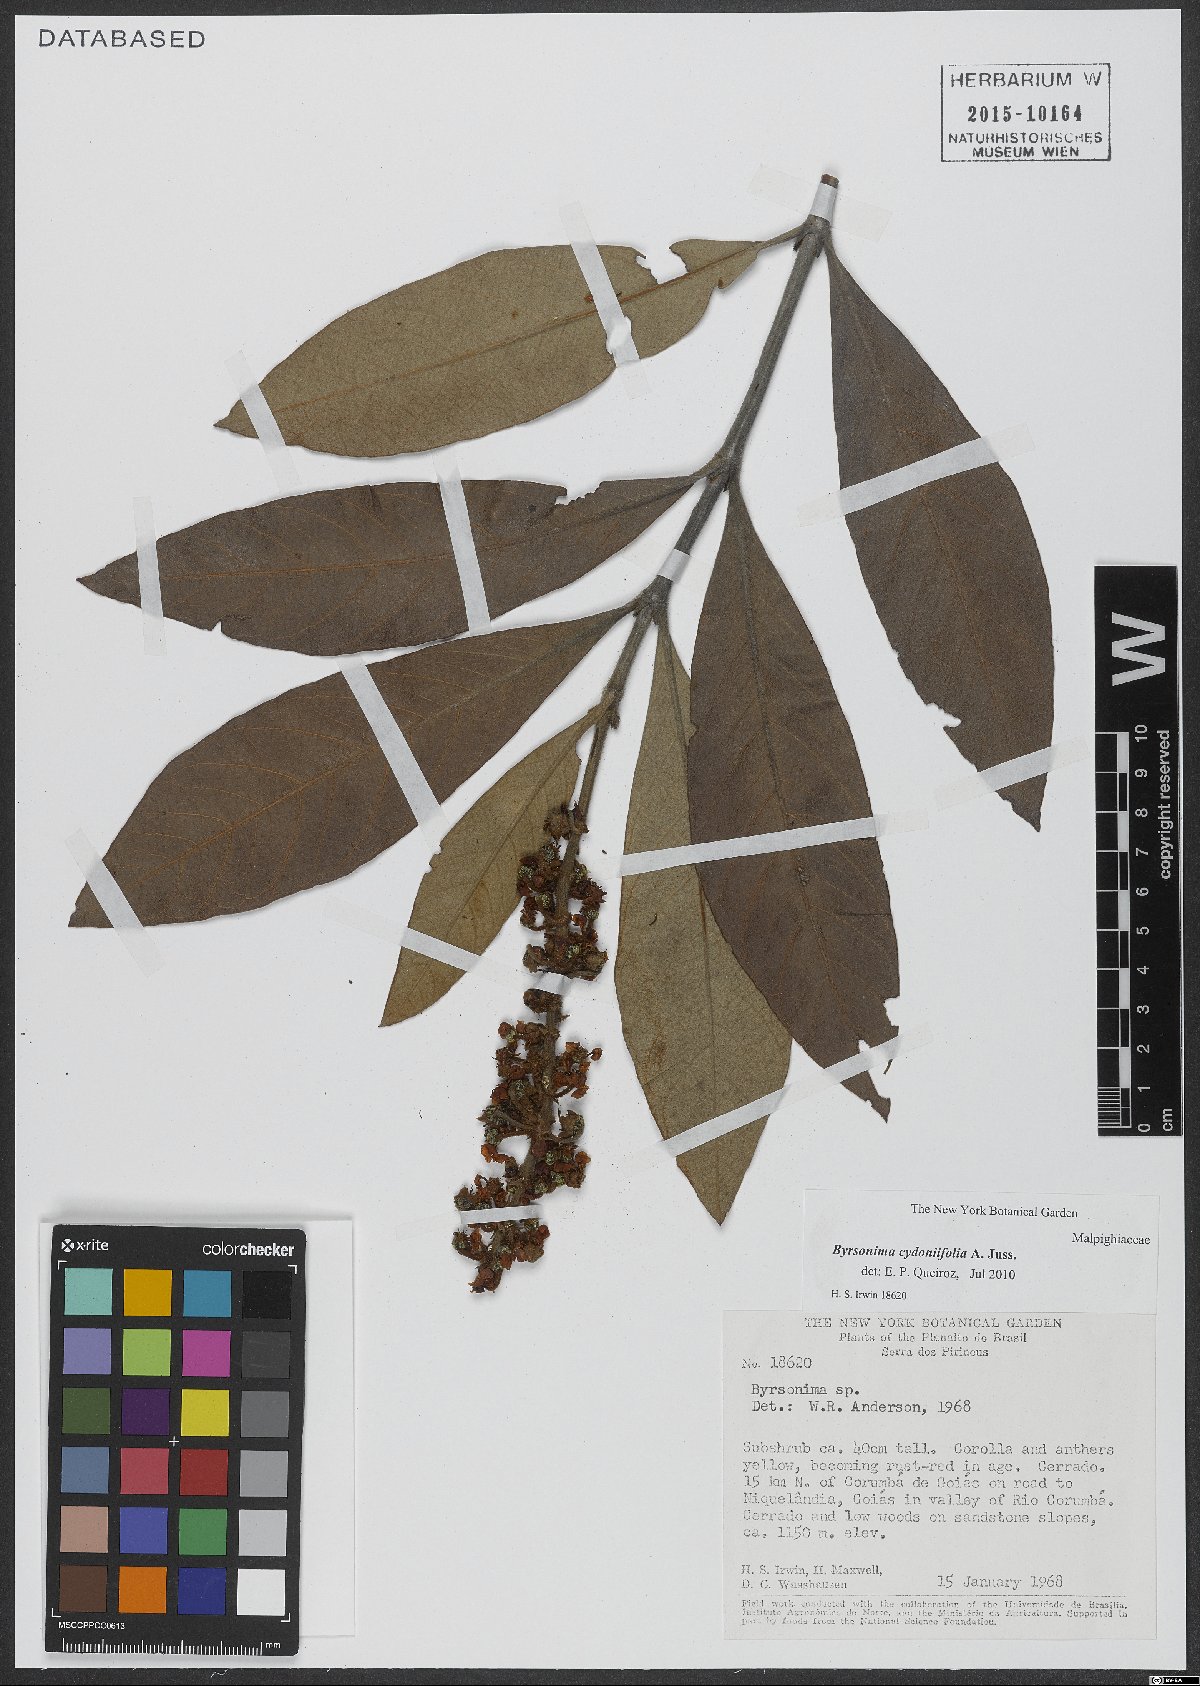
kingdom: Plantae
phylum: Tracheophyta
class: Magnoliopsida
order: Malpighiales
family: Malpighiaceae
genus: Byrsonima
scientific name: Byrsonima cydoniifolia
